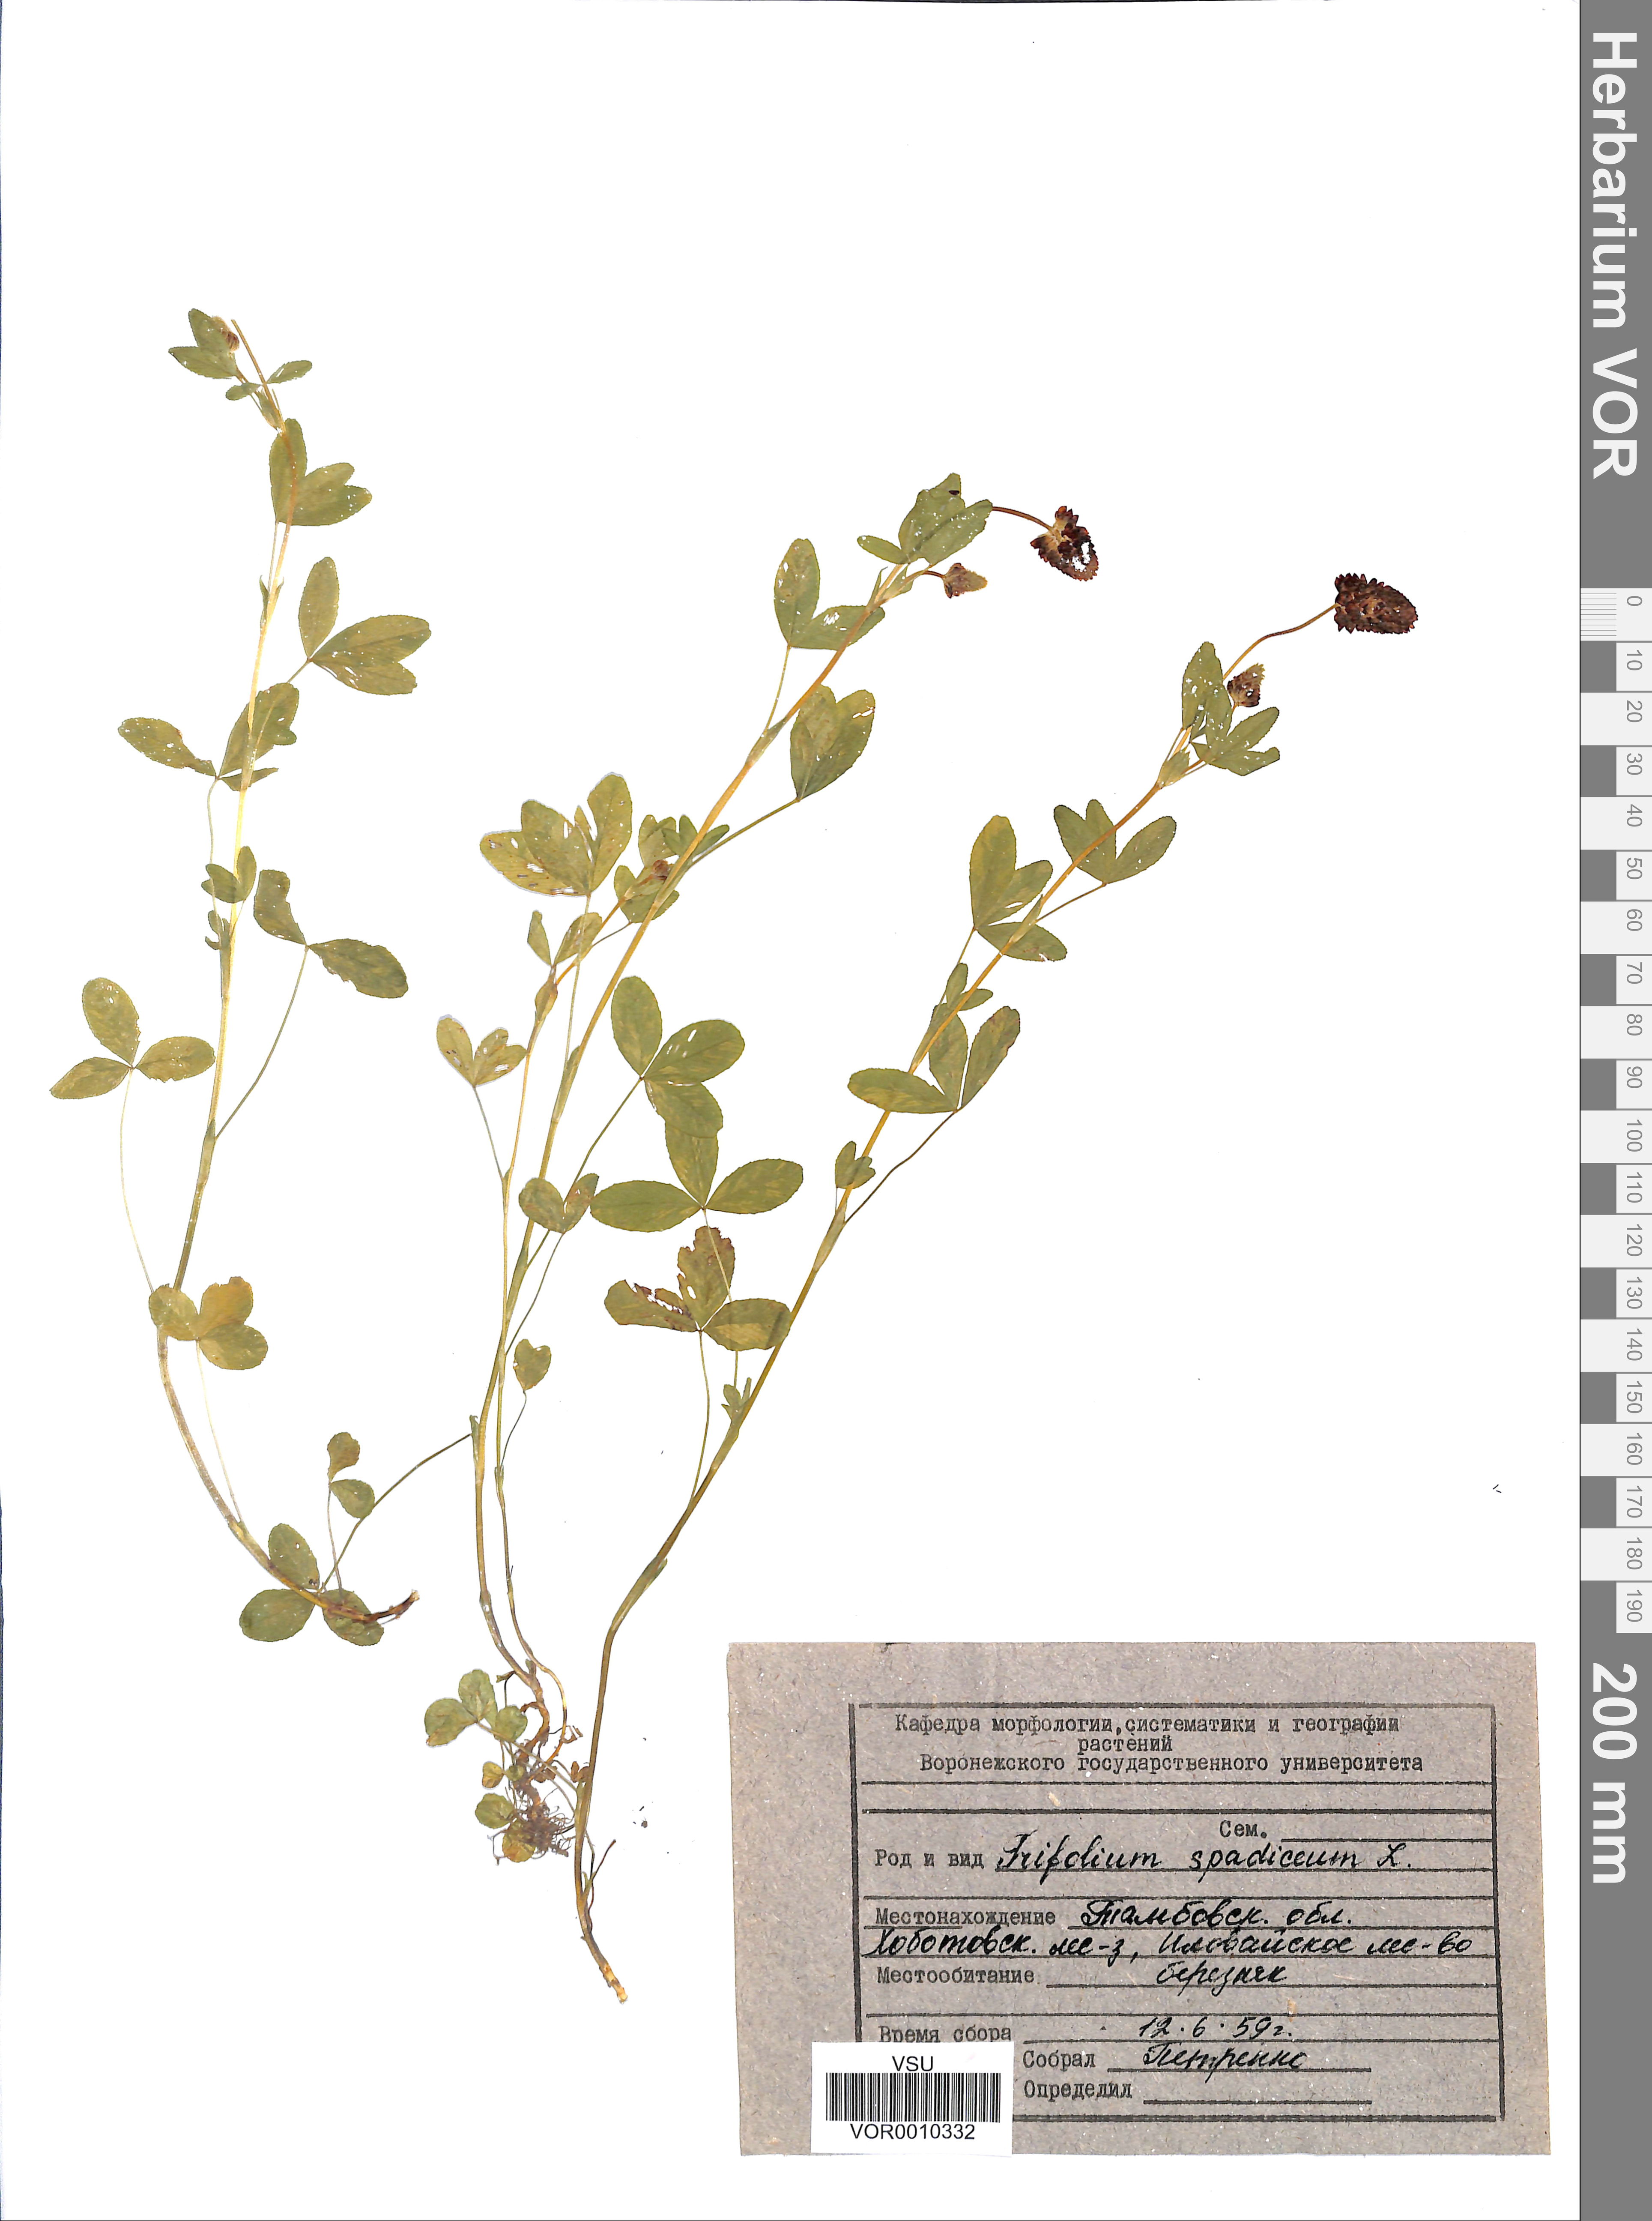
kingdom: Plantae
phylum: Tracheophyta
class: Magnoliopsida
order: Fabales
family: Fabaceae
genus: Trifolium
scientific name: Trifolium spadiceum
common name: Brown moor clover
